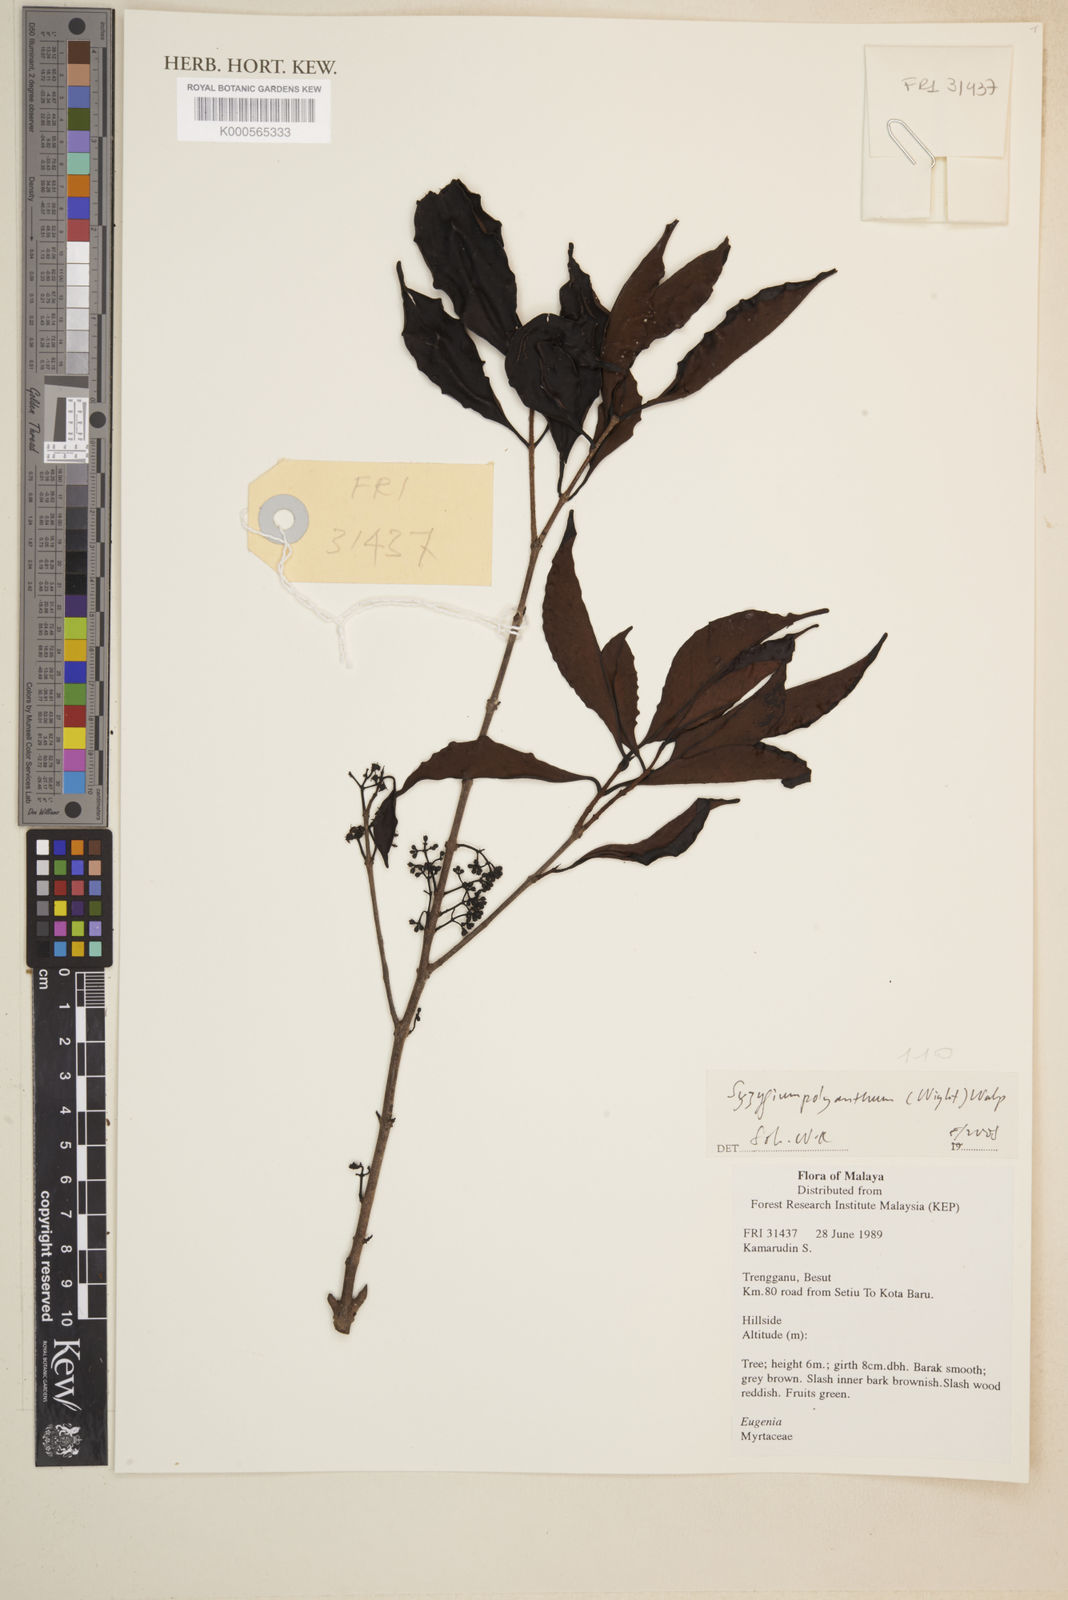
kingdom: Plantae
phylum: Tracheophyta
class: Magnoliopsida
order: Myrtales
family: Myrtaceae
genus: Syzygium
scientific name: Syzygium polyanthum
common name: Indonesian bayleaf
